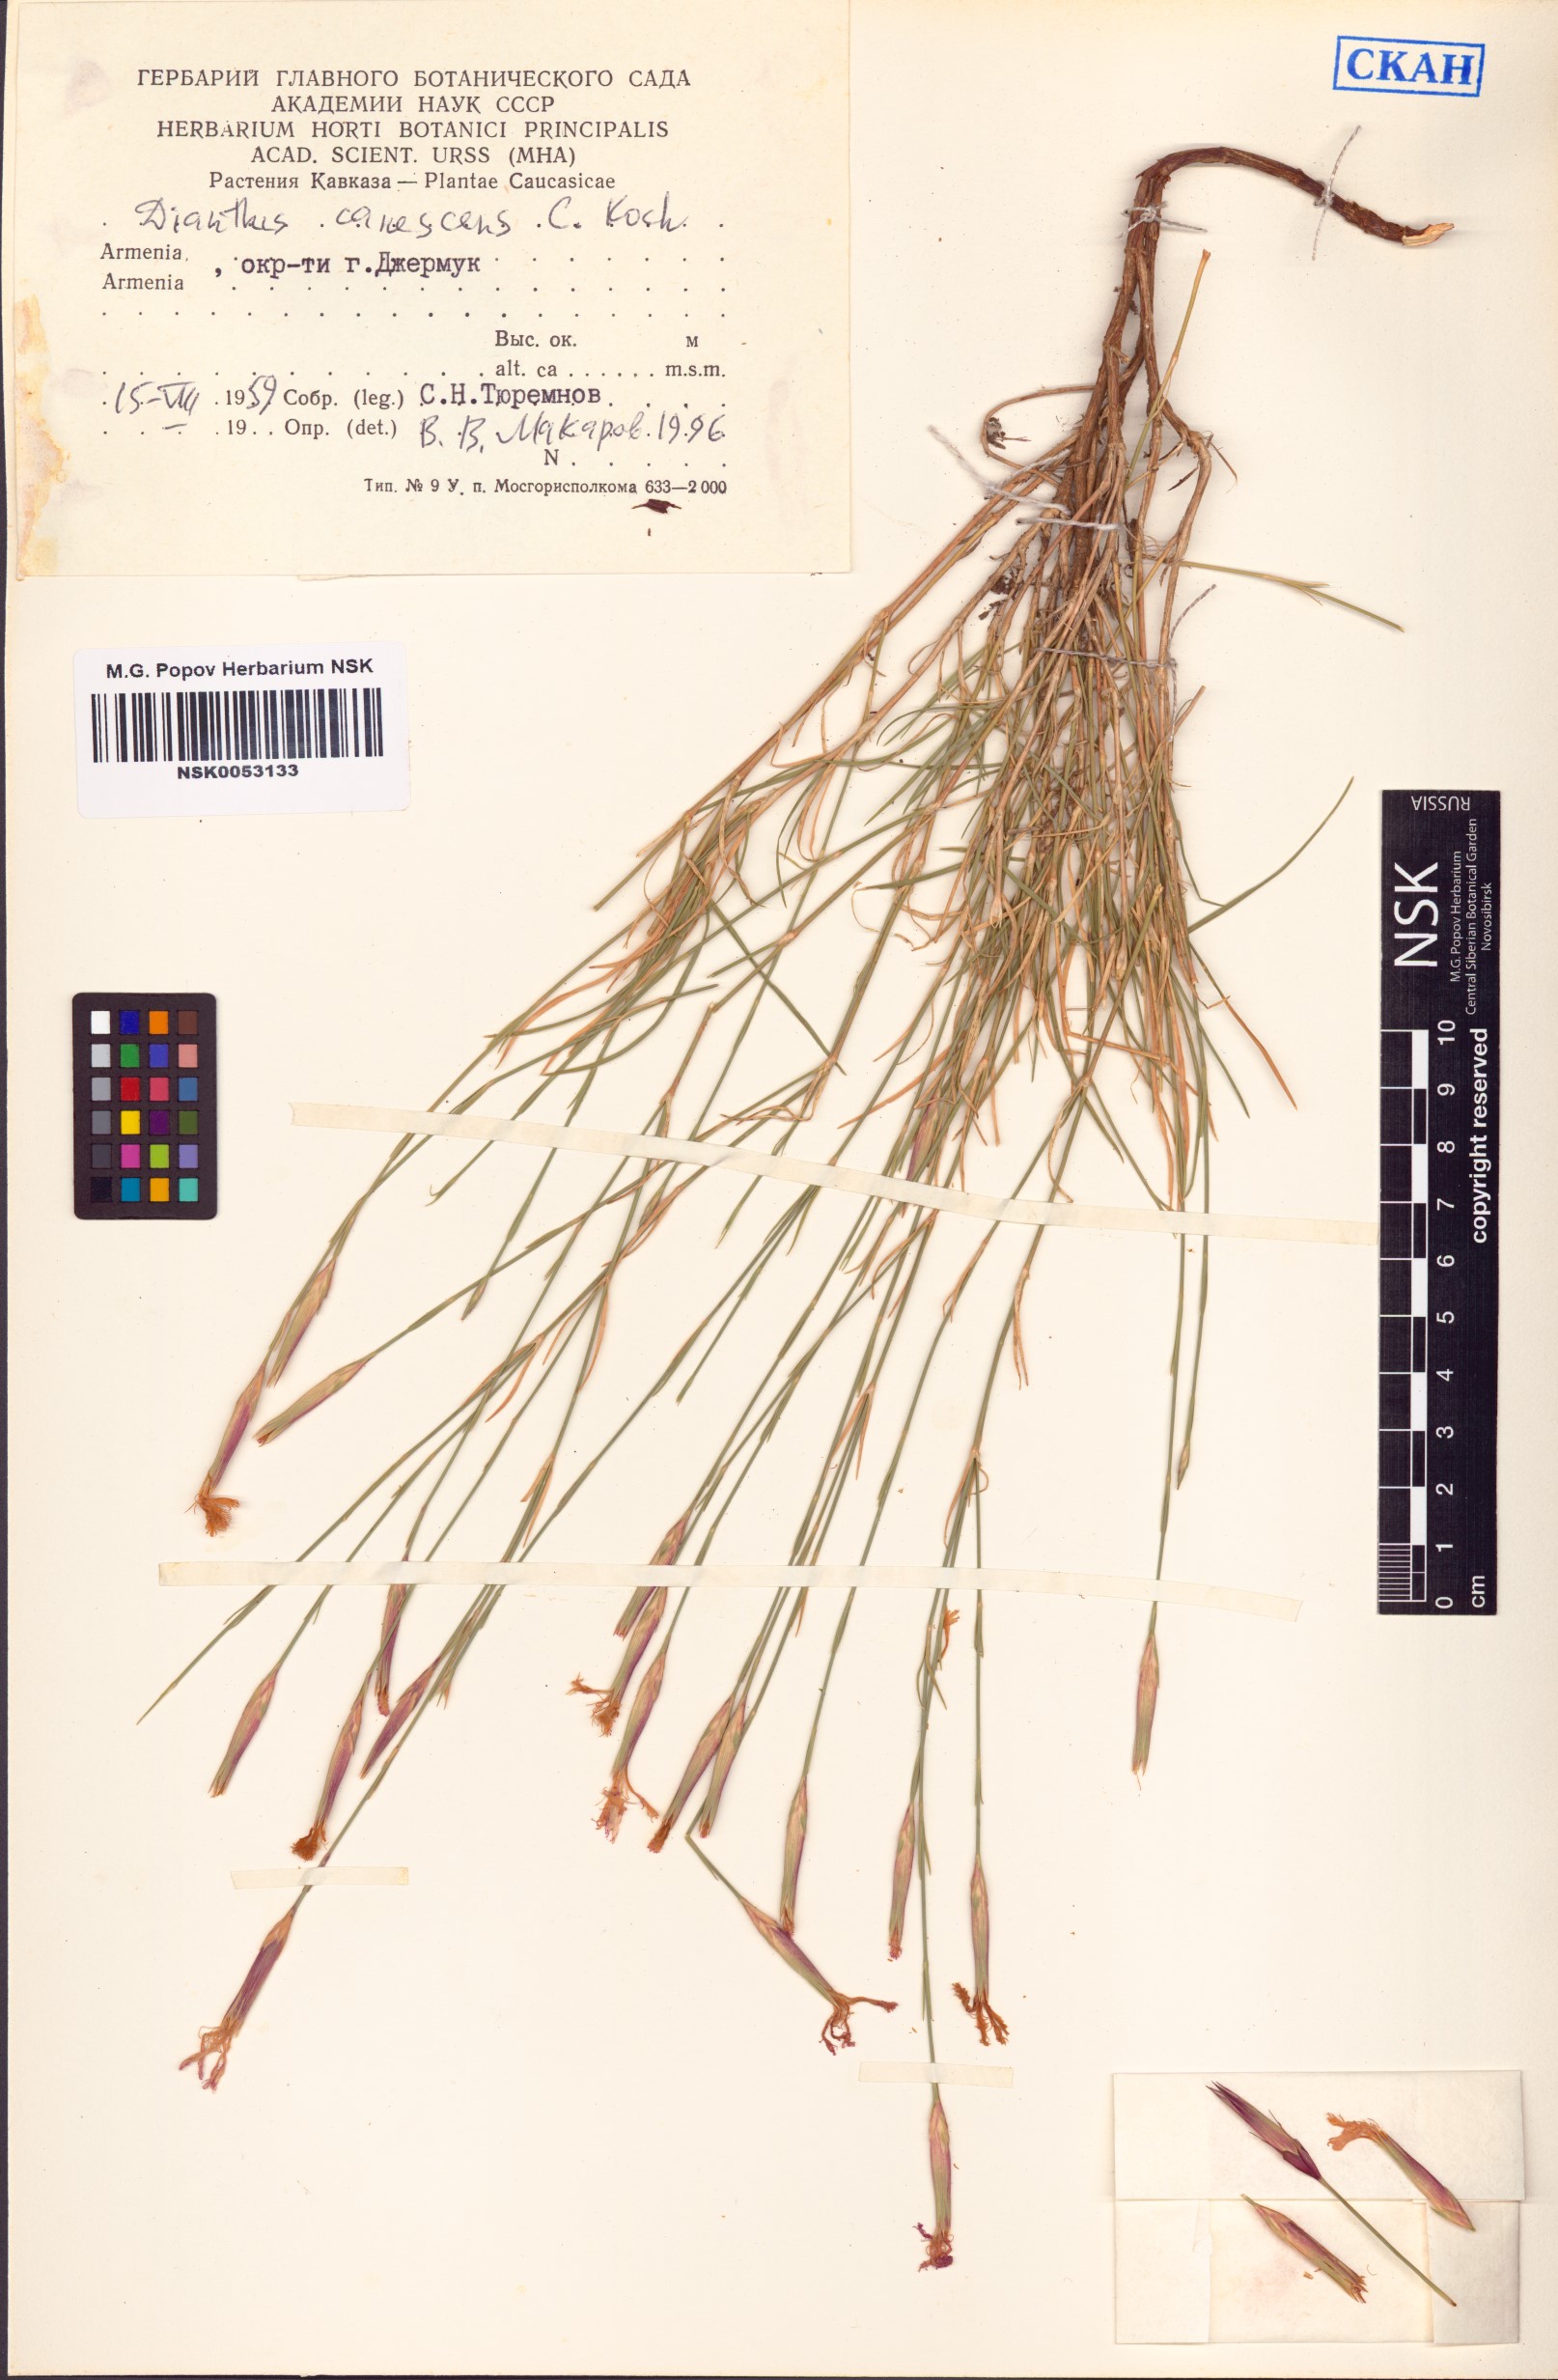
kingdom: Plantae
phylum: Tracheophyta
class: Magnoliopsida
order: Caryophyllales
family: Caryophyllaceae
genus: Dianthus
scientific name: Dianthus orientalis
